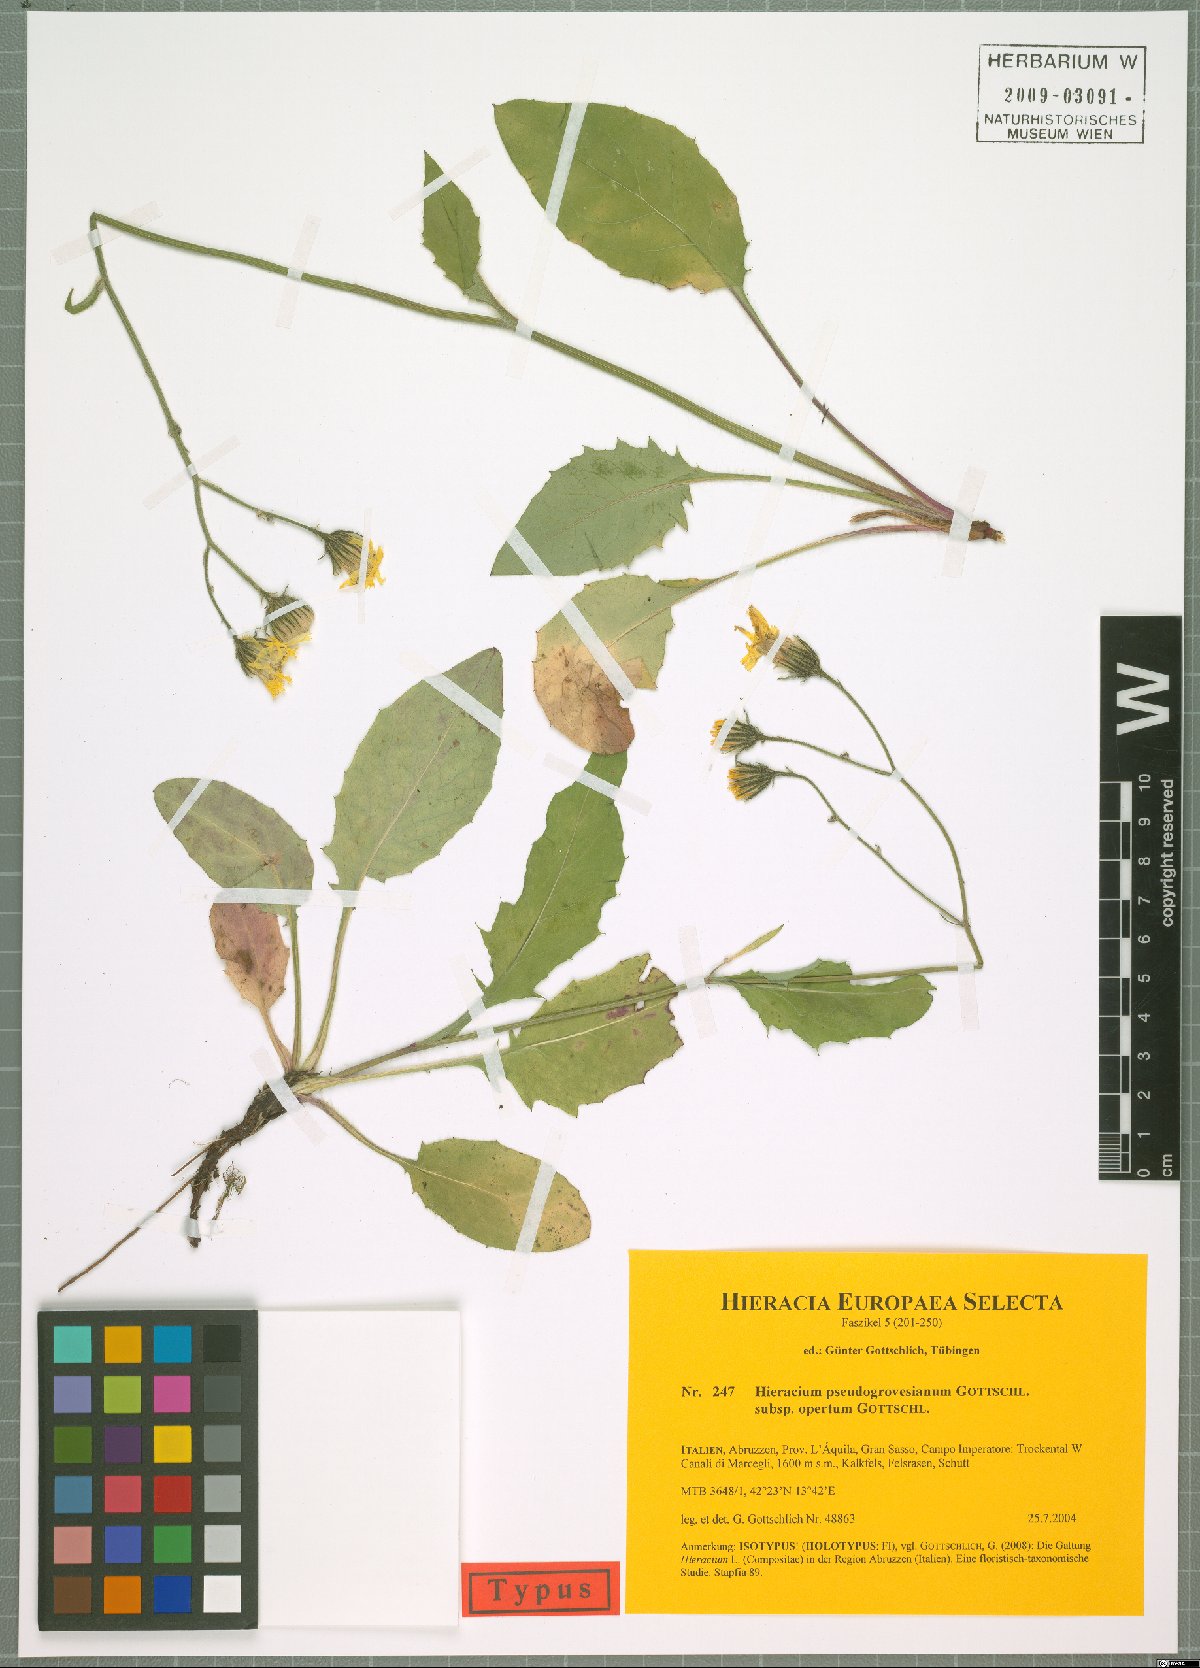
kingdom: Plantae
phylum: Tracheophyta
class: Magnoliopsida
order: Asterales
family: Asteraceae
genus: Hieracium
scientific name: Hieracium pseudogrovesianum
